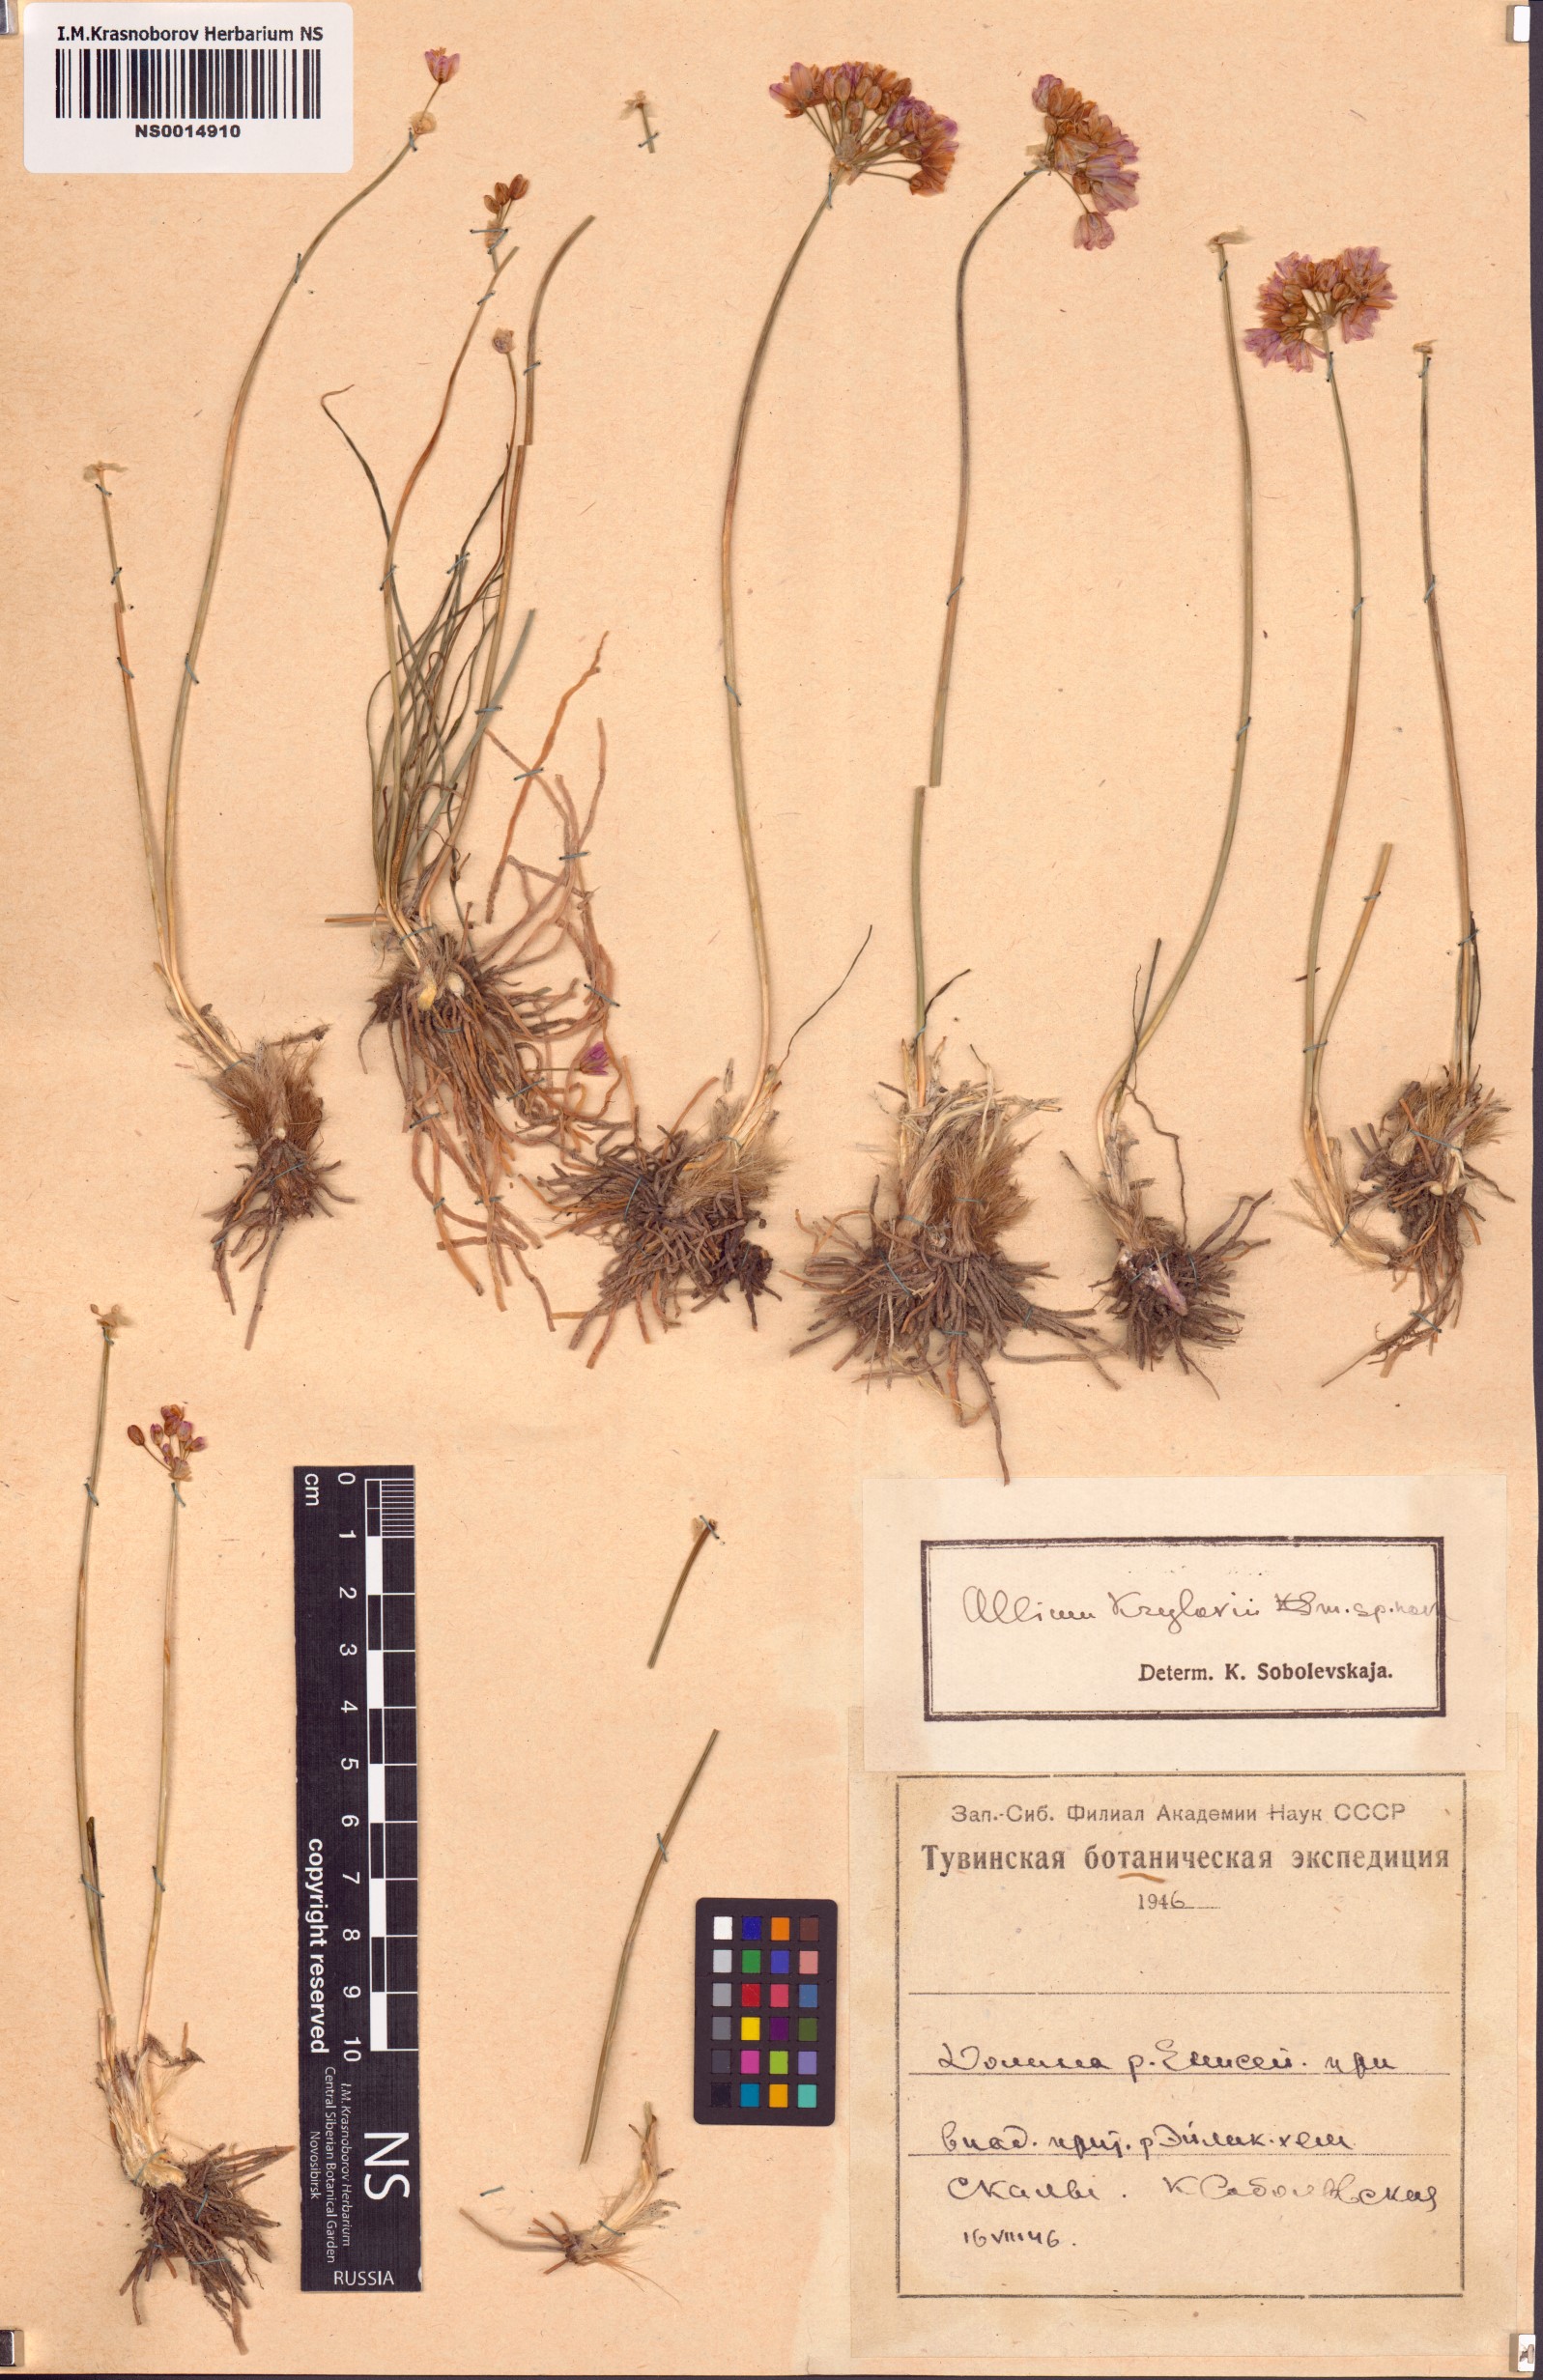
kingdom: Plantae
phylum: Tracheophyta
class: Liliopsida
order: Asparagales
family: Amaryllidaceae
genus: Allium
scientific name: Allium mongolicum
